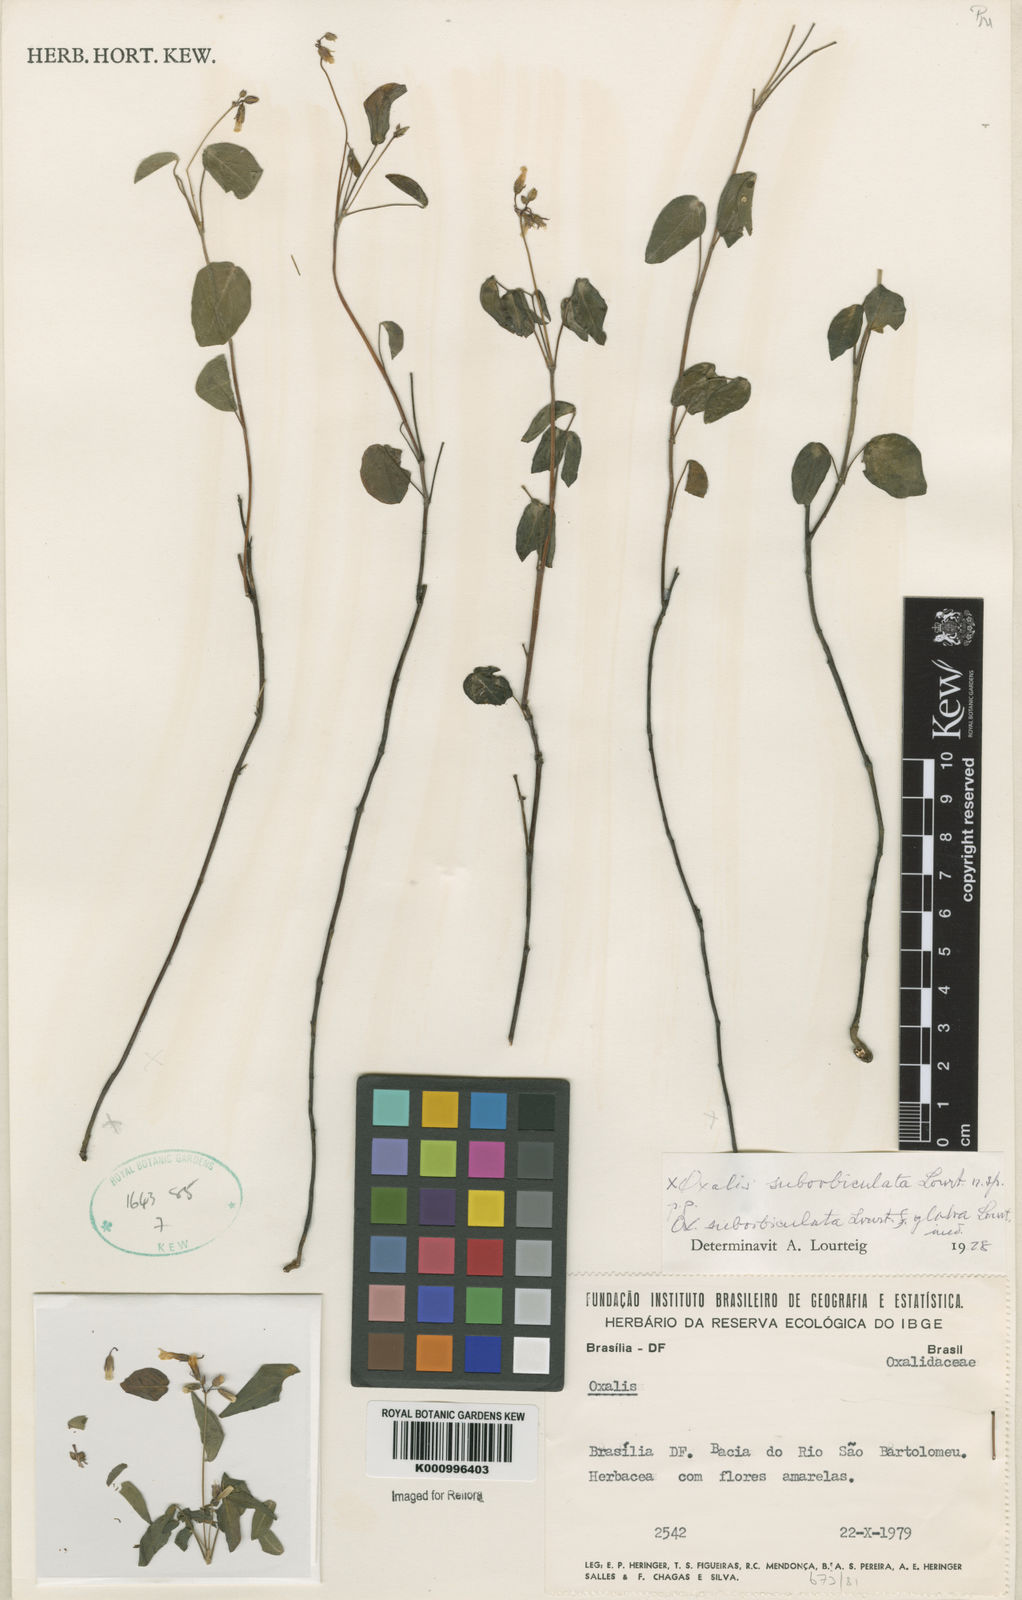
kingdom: Plantae
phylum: Tracheophyta
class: Magnoliopsida
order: Oxalidales
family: Oxalidaceae
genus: Oxalis
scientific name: Oxalis suborbiculata
